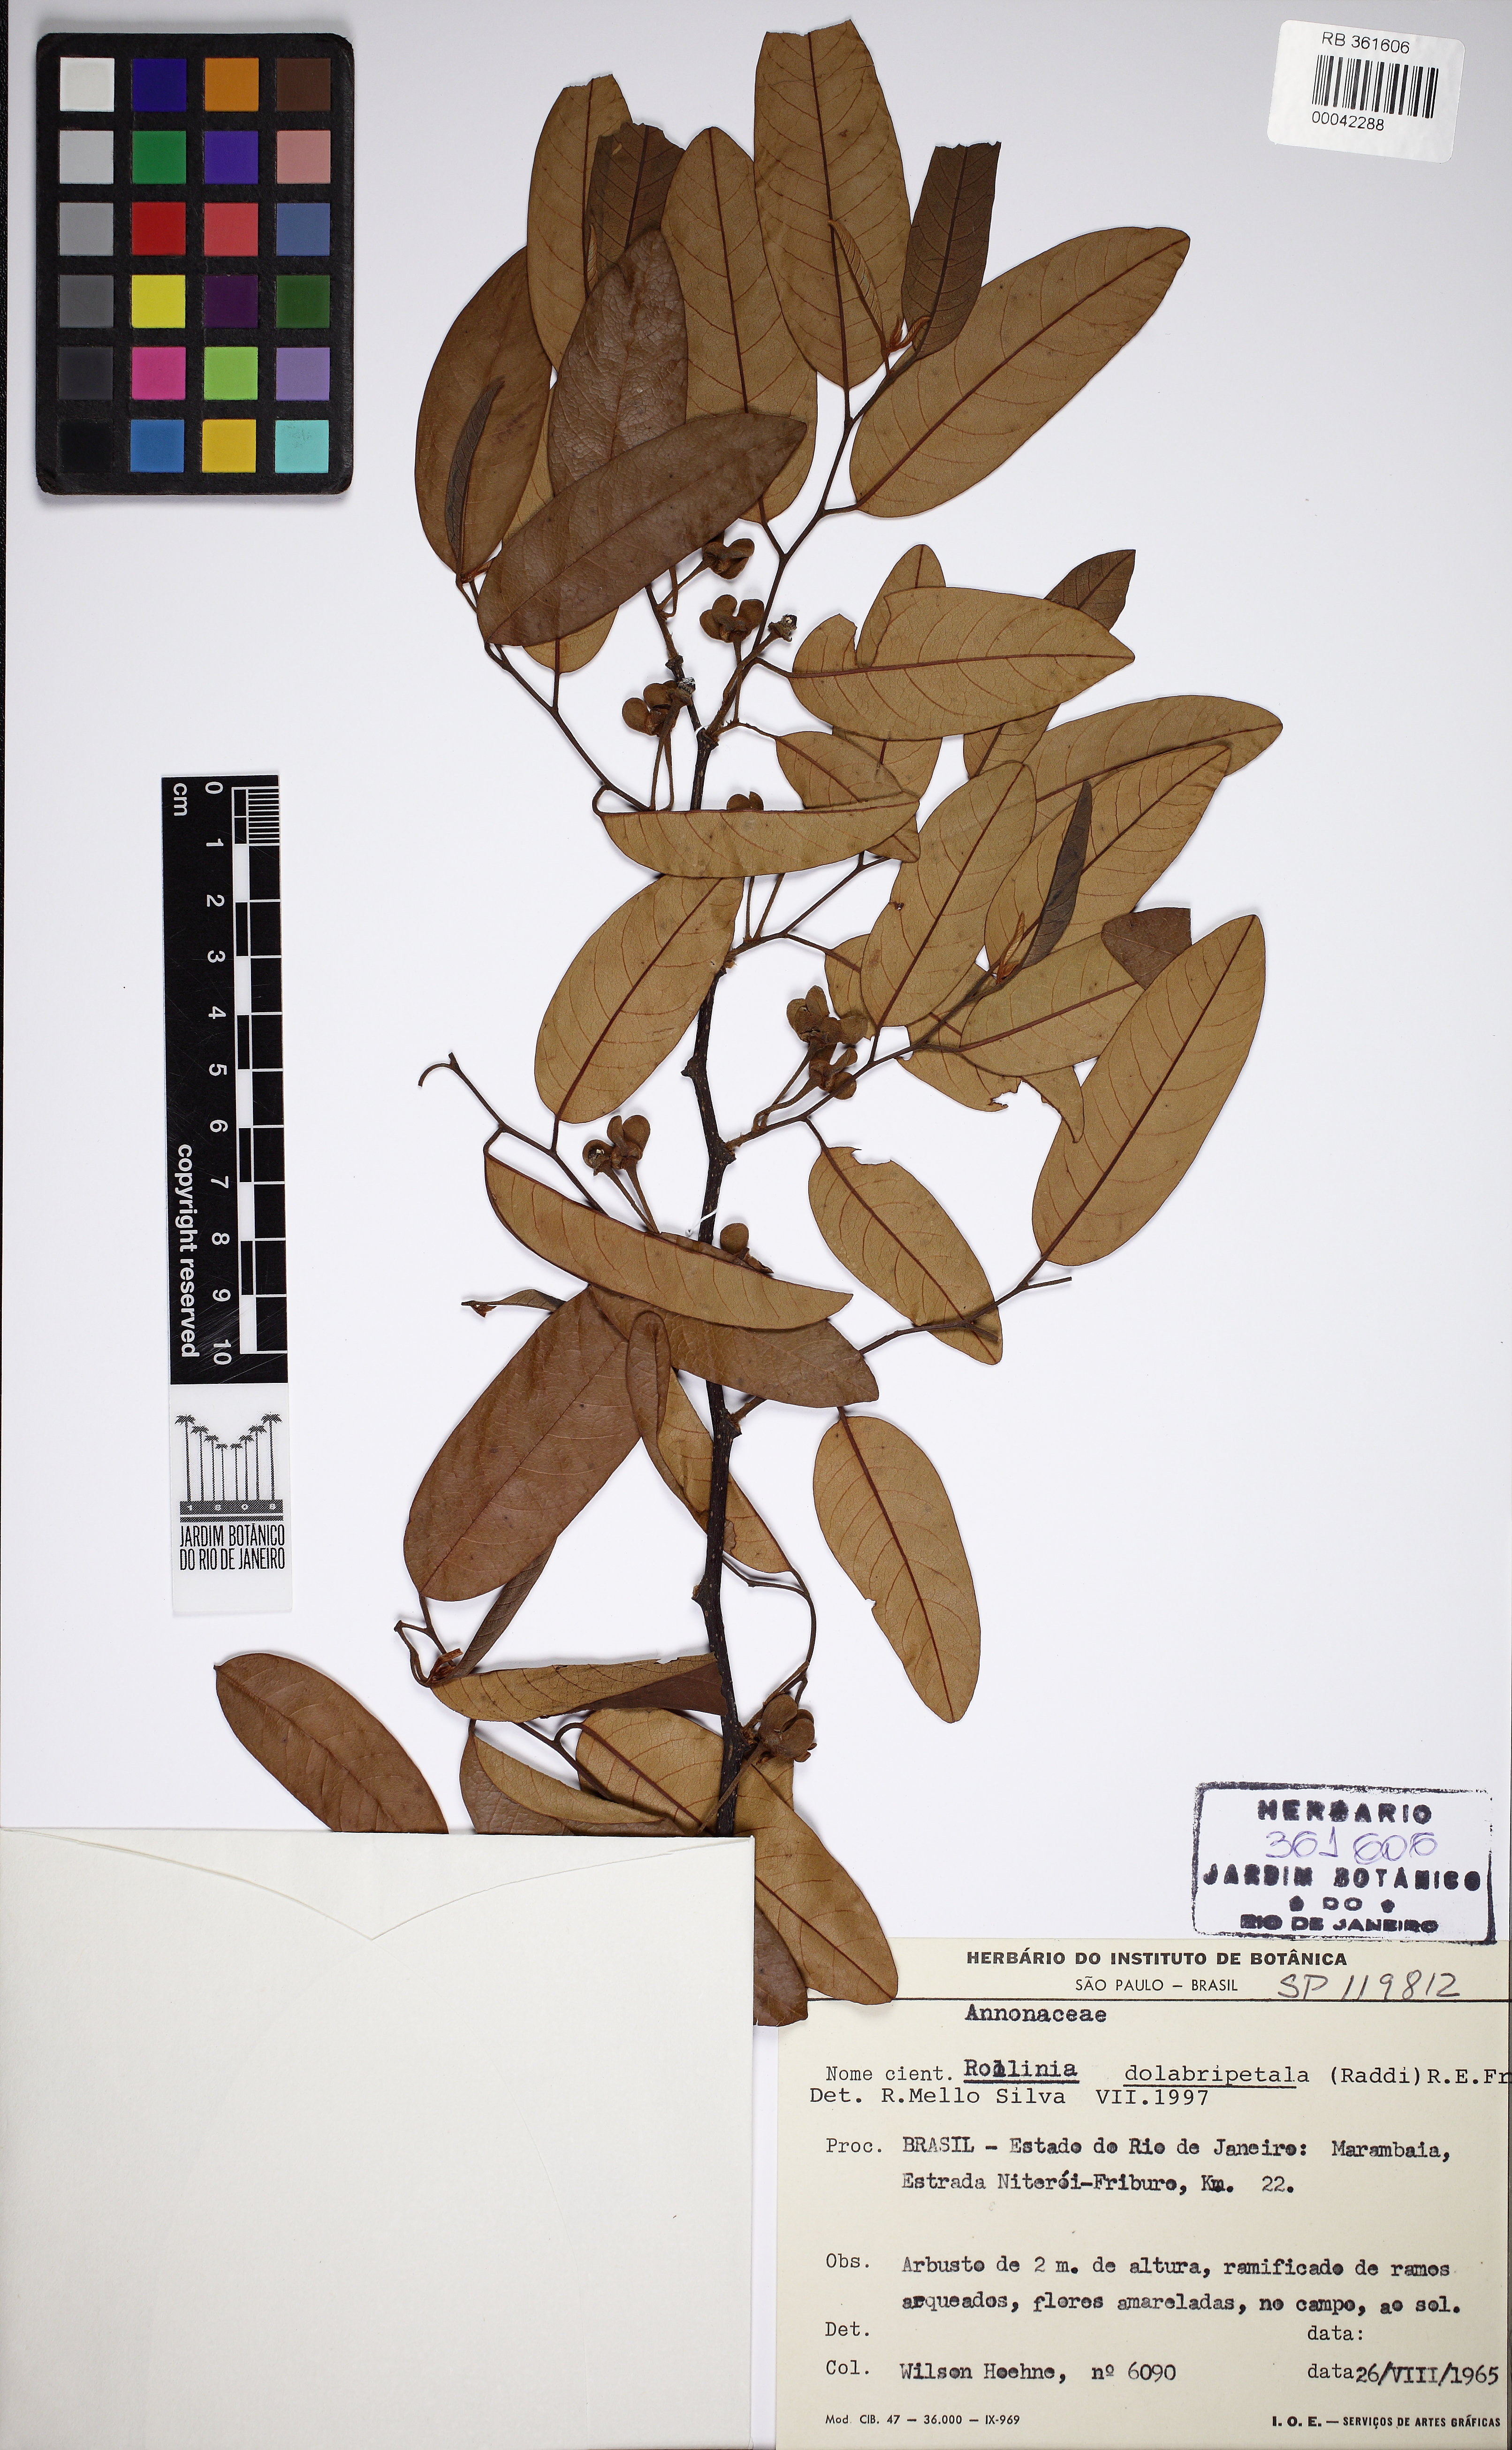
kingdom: Plantae
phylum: Tracheophyta
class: Magnoliopsida
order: Magnoliales
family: Annonaceae
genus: Annona
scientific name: Annona dolabripetala
